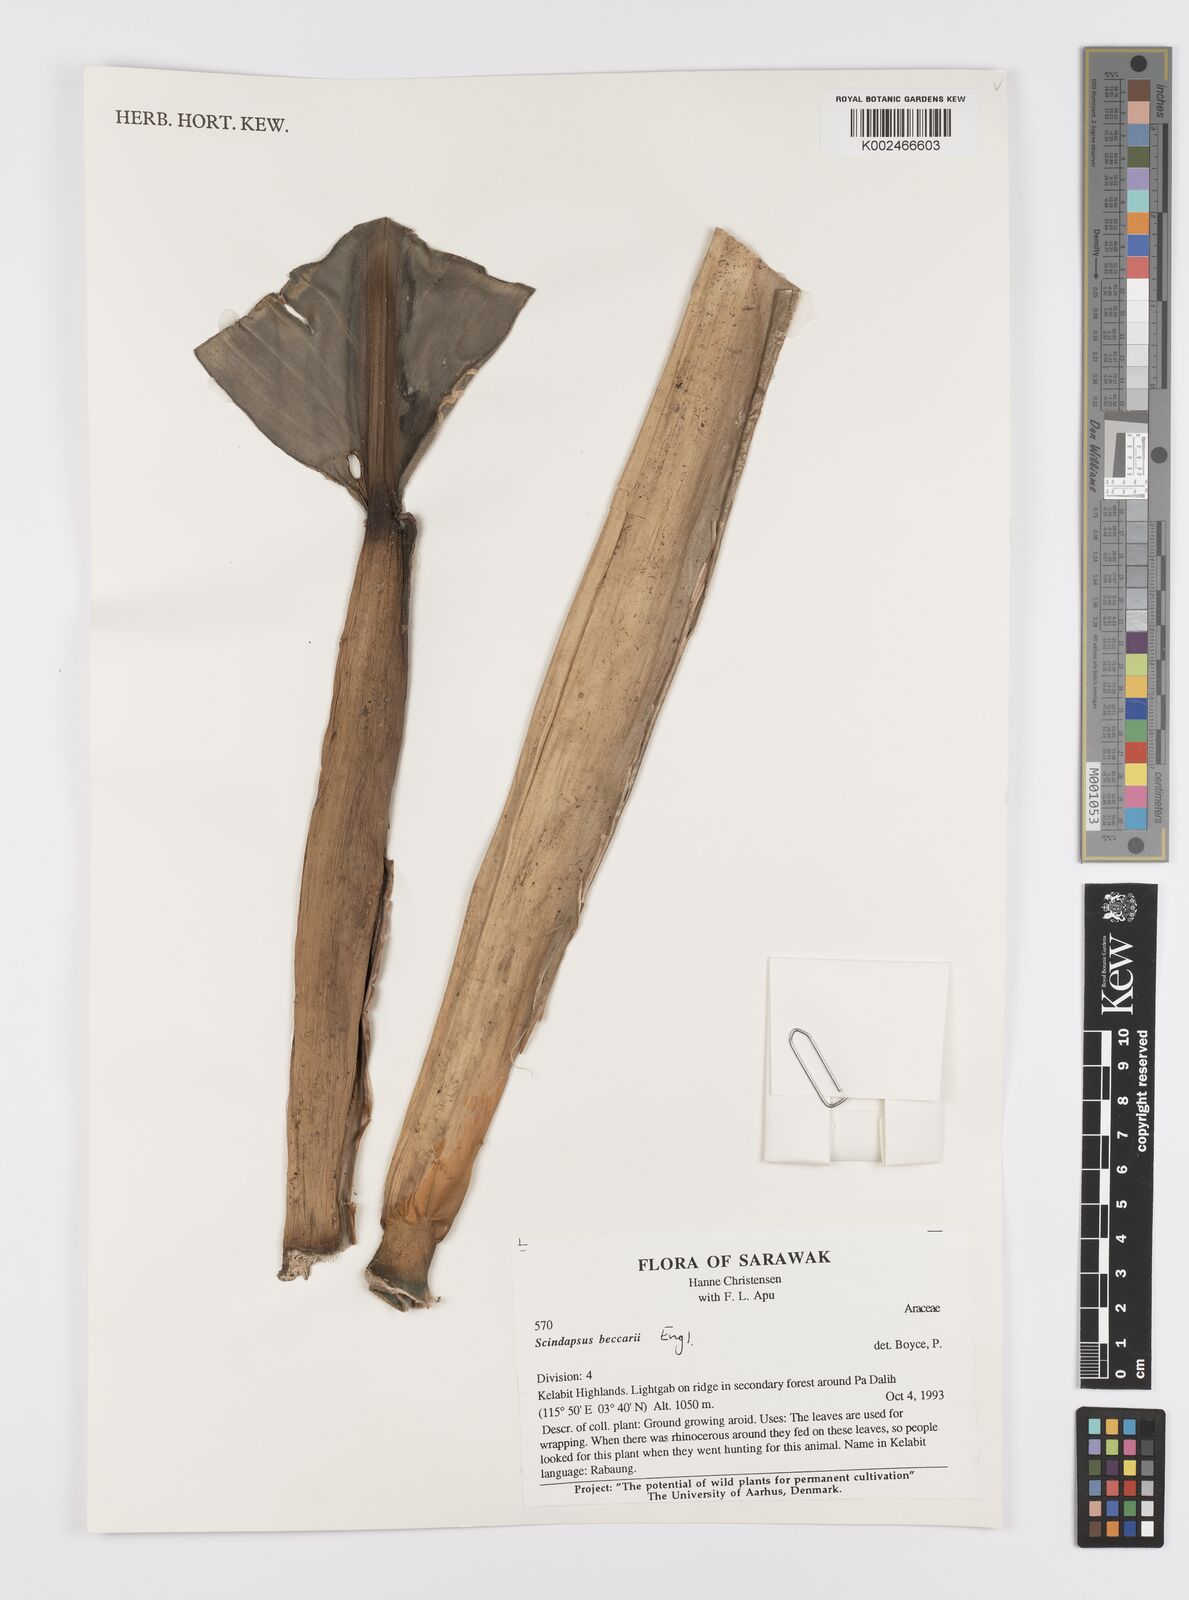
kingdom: Plantae
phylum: Tracheophyta
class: Liliopsida
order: Alismatales
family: Araceae
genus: Scindapsus
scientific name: Scindapsus beccarii
